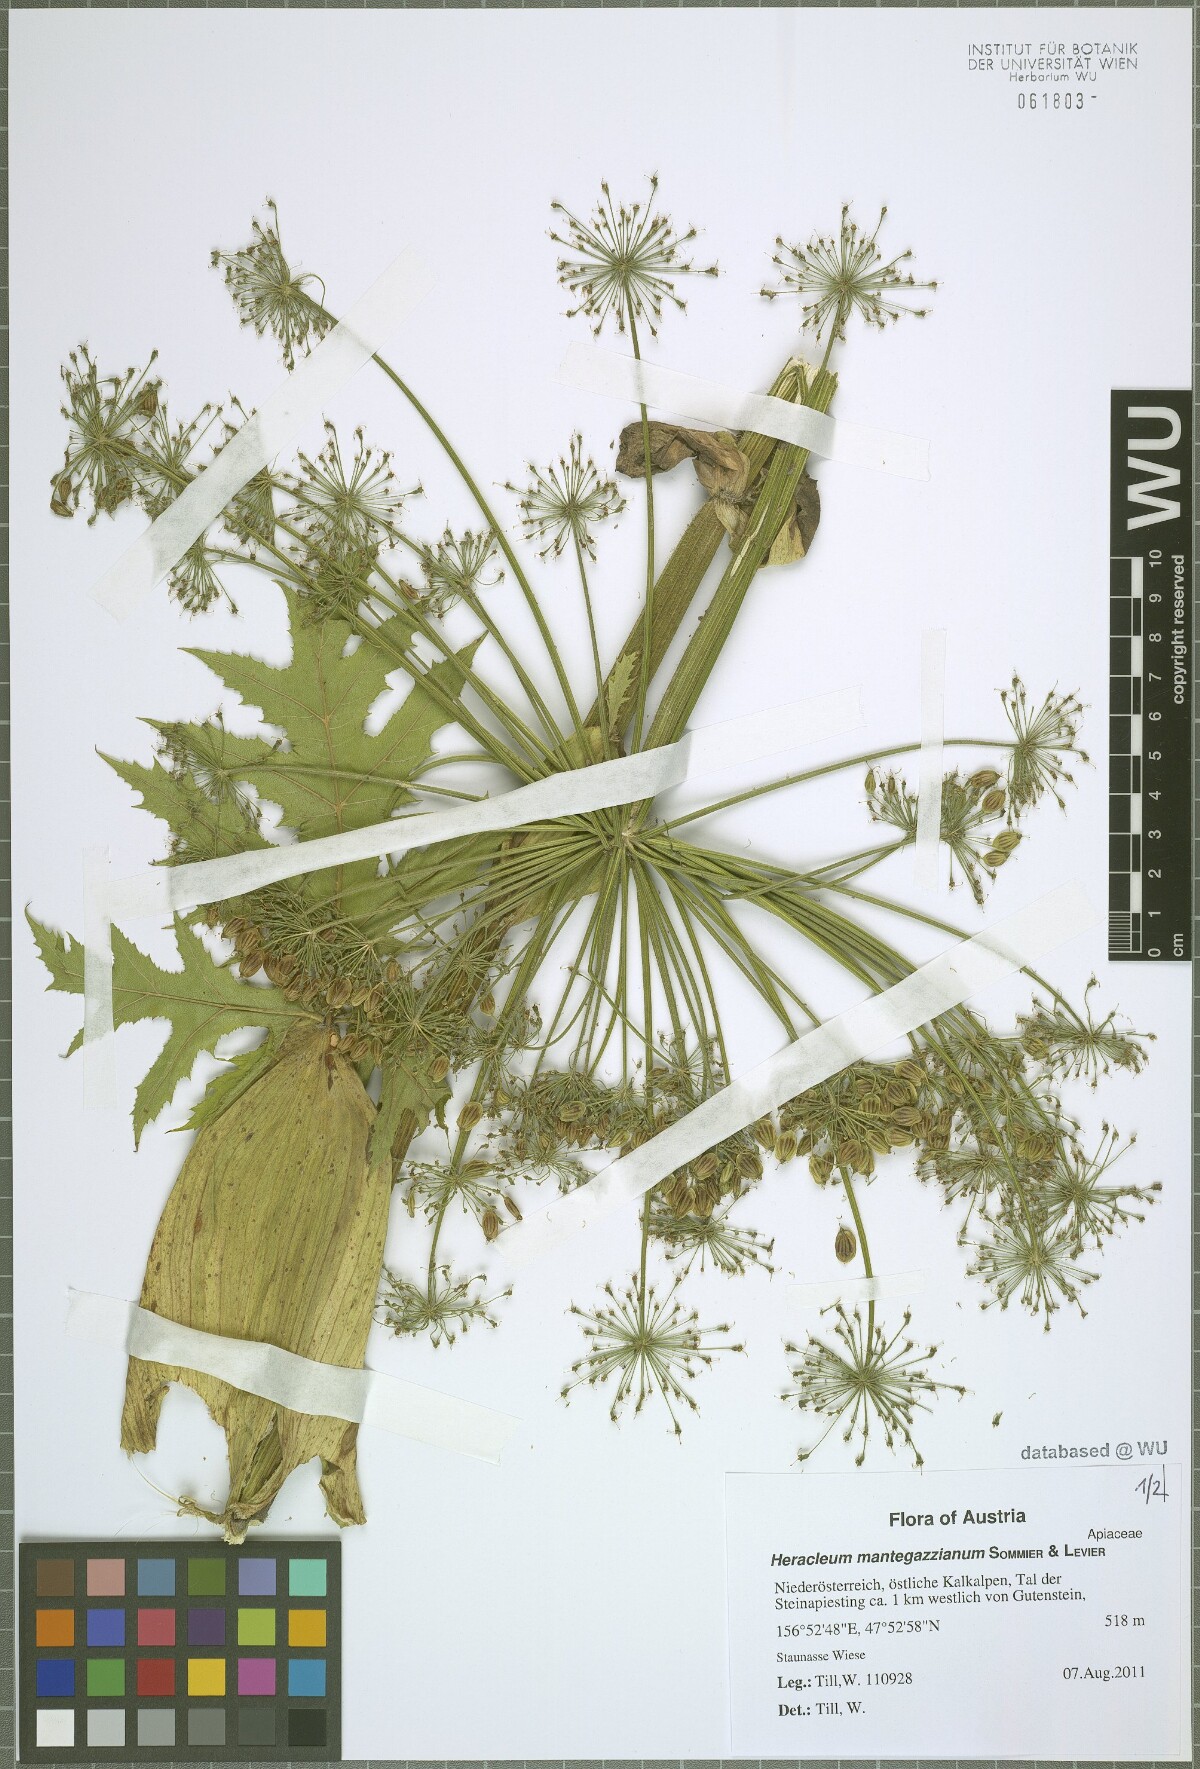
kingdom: Plantae
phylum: Tracheophyta
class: Magnoliopsida
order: Apiales
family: Apiaceae
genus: Heracleum
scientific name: Heracleum mantegazzianum
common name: Giant hogweed
